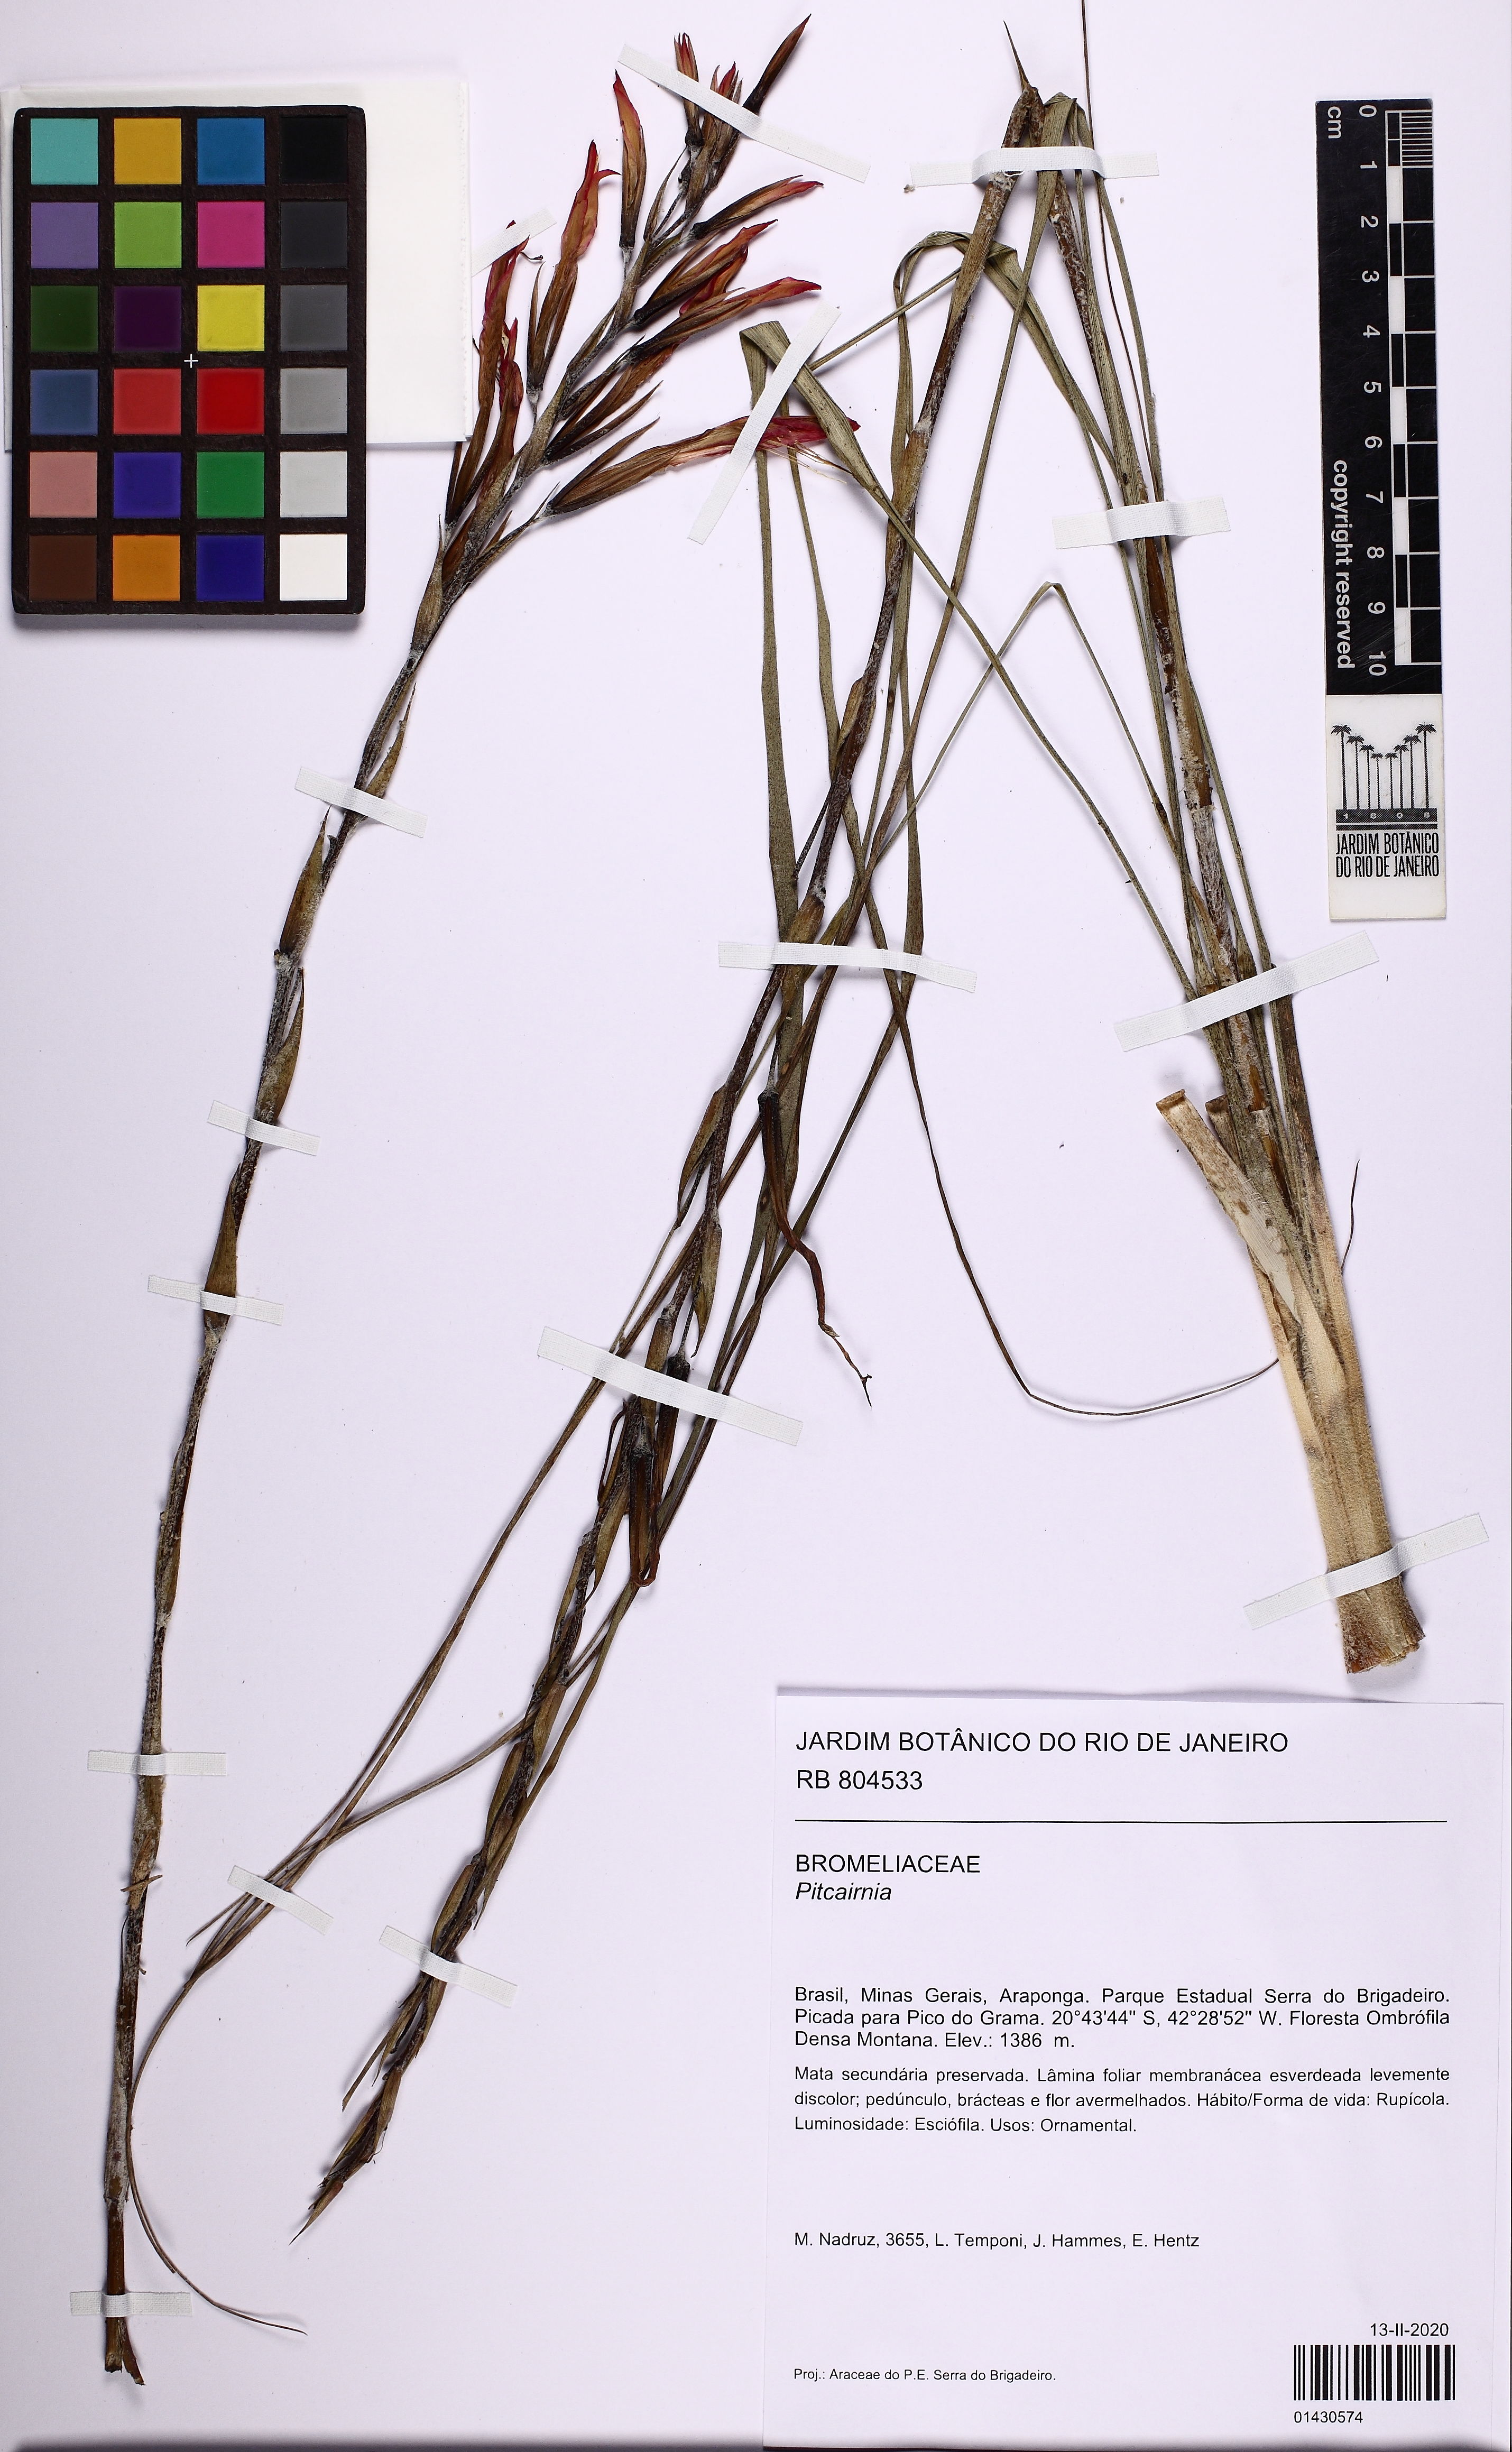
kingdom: Plantae
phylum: Tracheophyta
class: Liliopsida
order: Poales
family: Bromeliaceae
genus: Pitcairnia
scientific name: Pitcairnia
